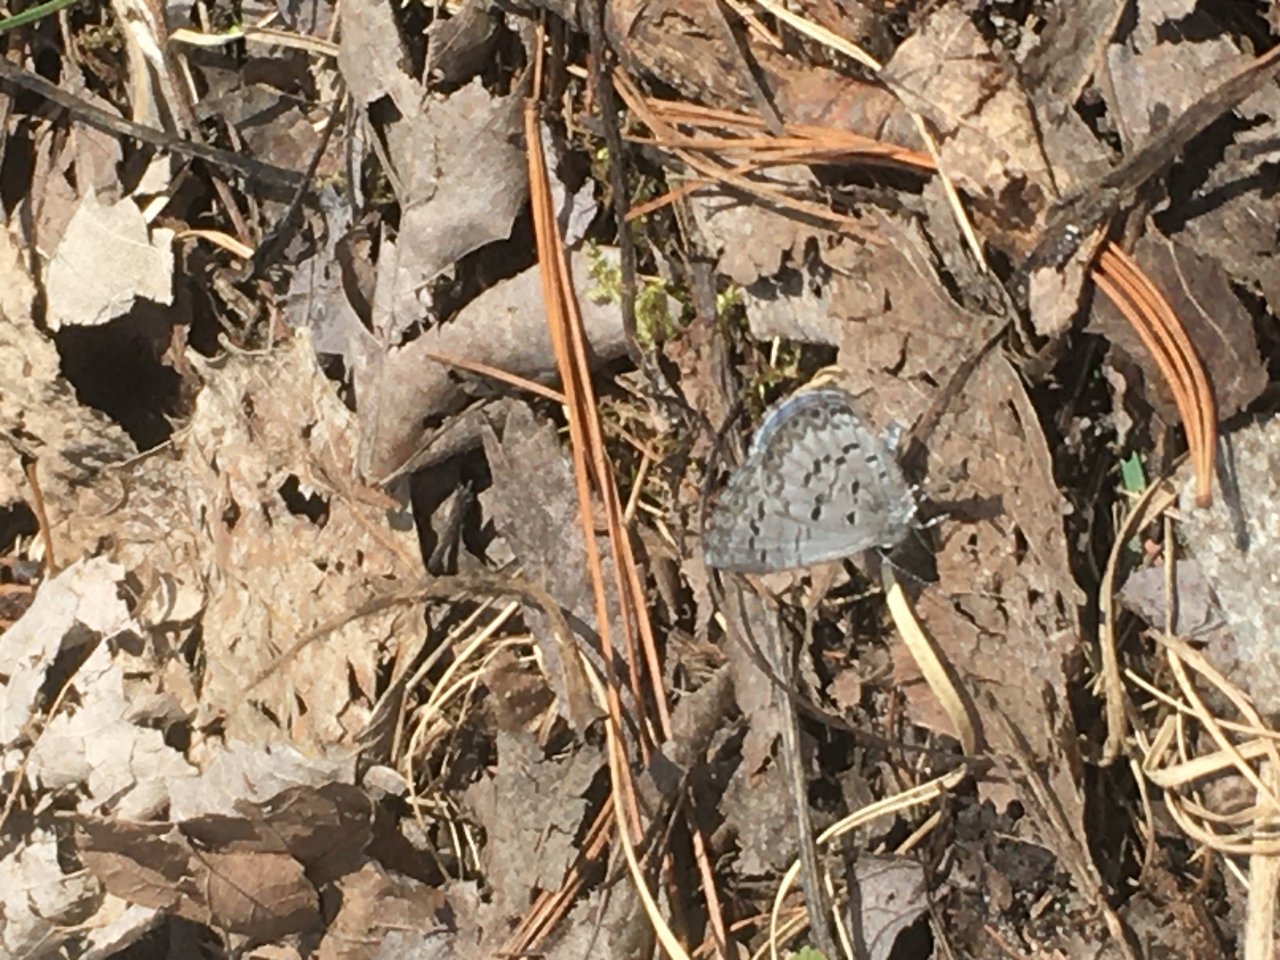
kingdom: Animalia
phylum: Arthropoda
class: Insecta
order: Lepidoptera
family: Lycaenidae
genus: Celastrina
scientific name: Celastrina lucia
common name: Northern Spring Azure
